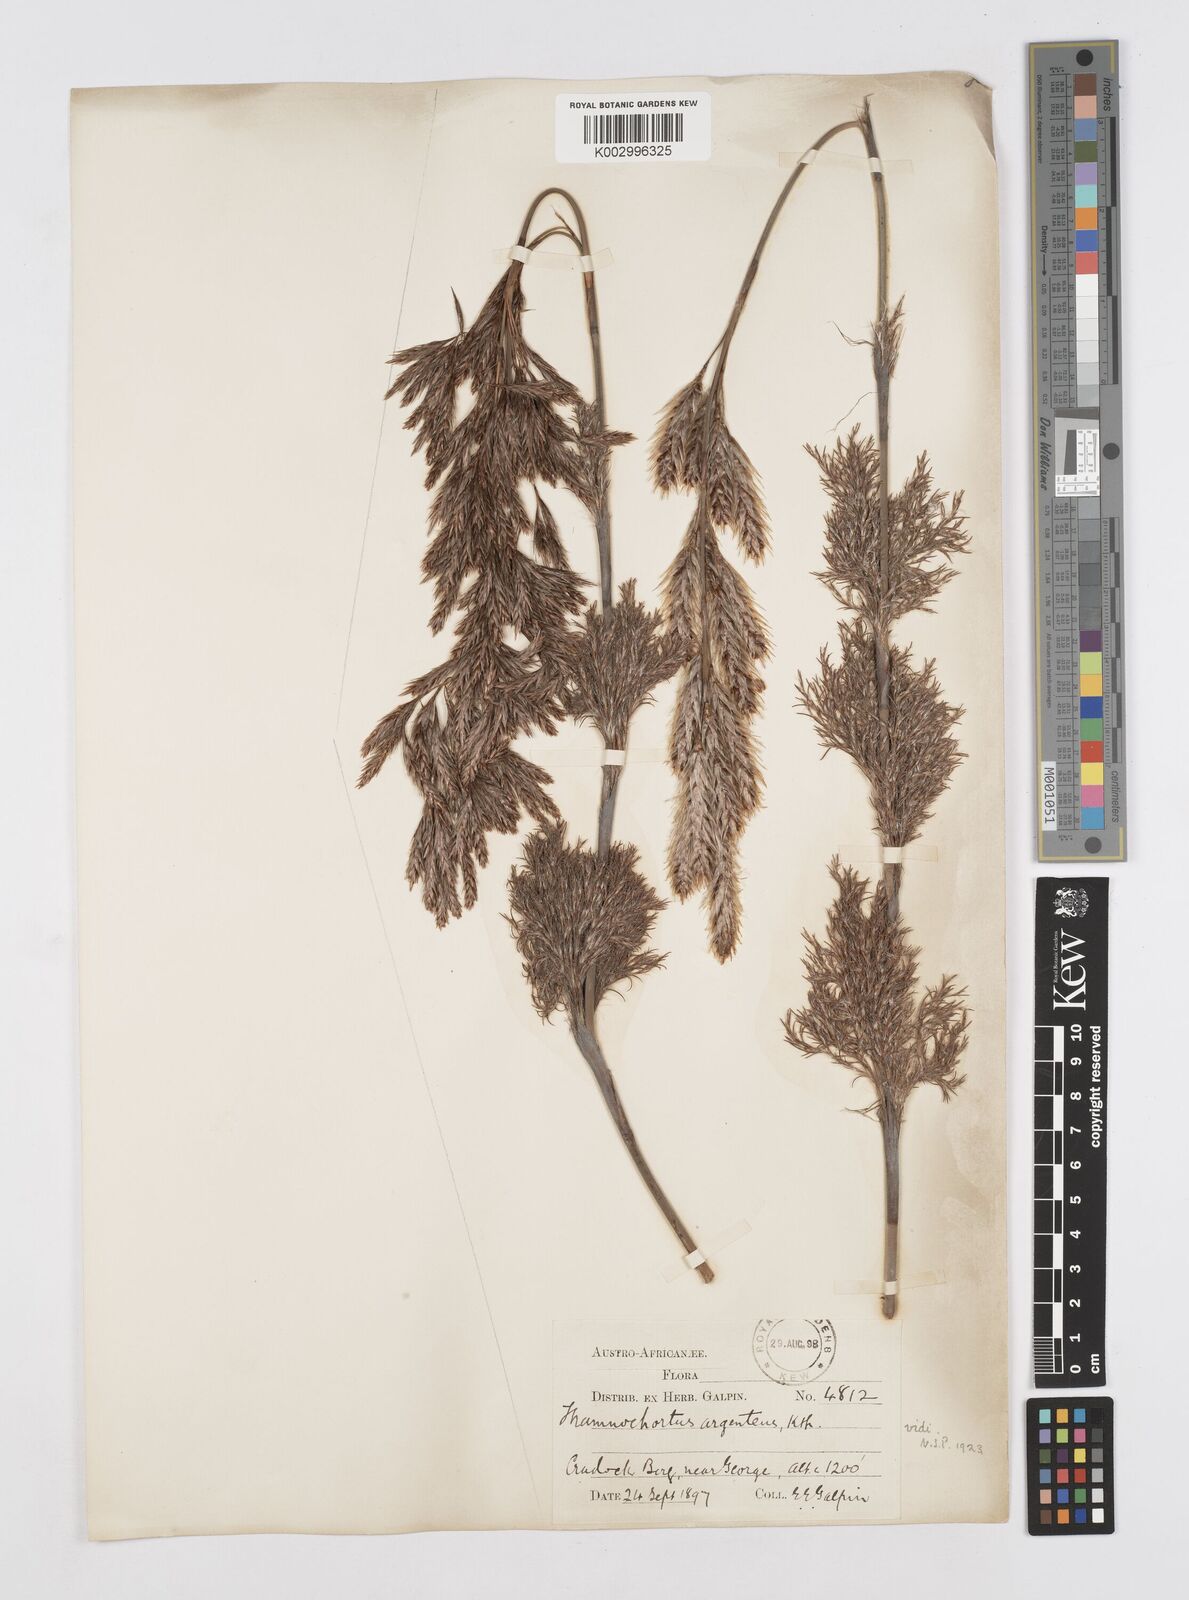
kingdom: Plantae
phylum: Tracheophyta
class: Liliopsida
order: Poales
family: Restionaceae
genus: Hypodiscus
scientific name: Hypodiscus argenteus
